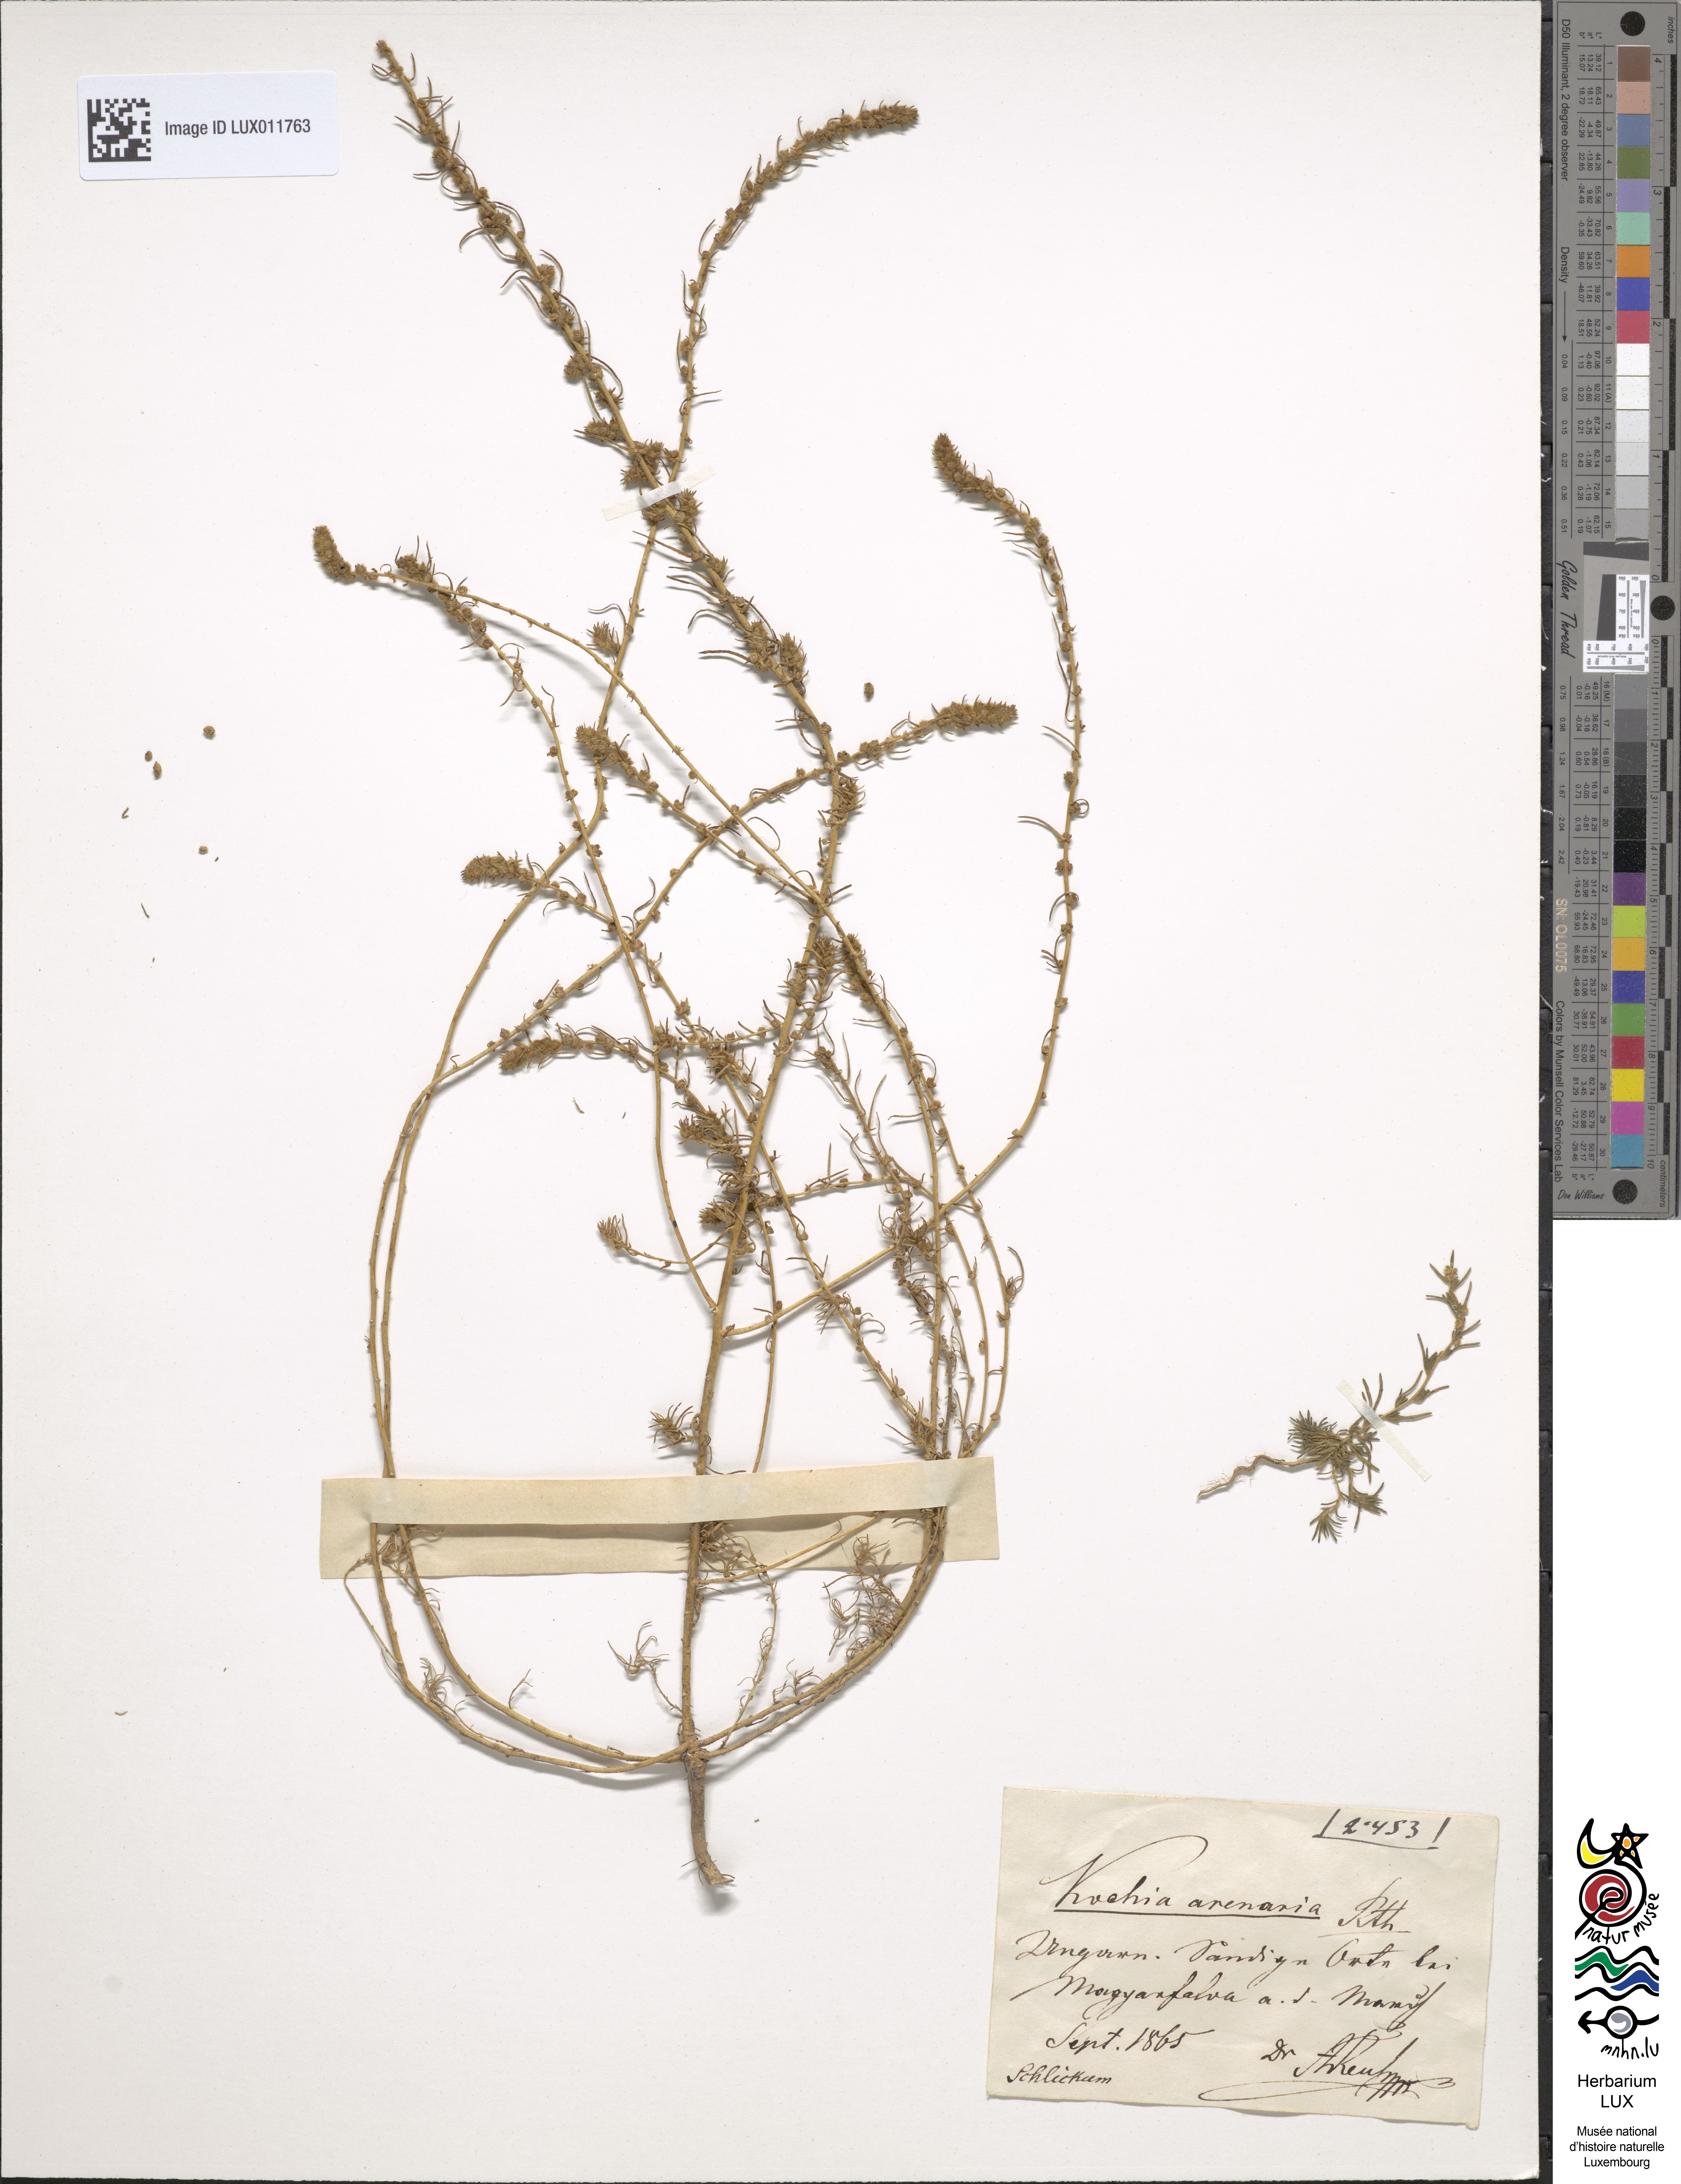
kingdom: Plantae
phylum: Tracheophyta
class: Magnoliopsida
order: Caryophyllales
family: Amaranthaceae
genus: Bassia
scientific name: Bassia laniflora
